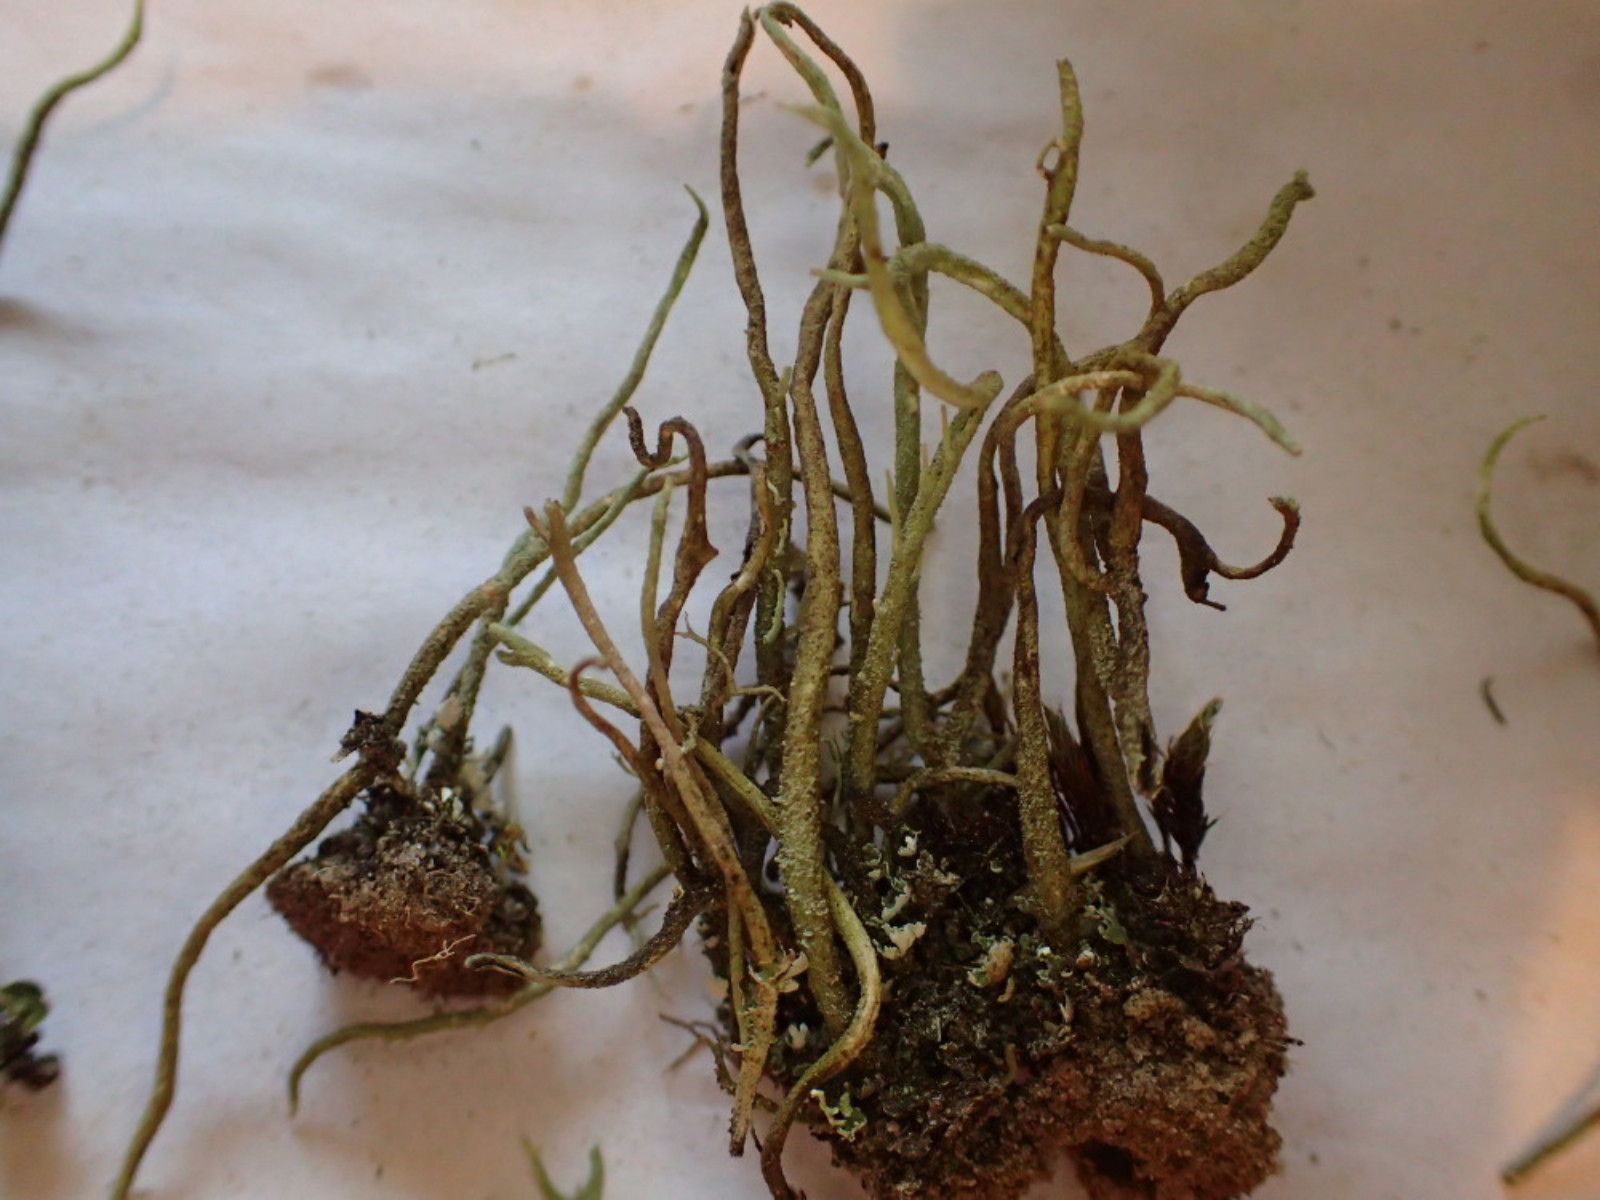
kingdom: Fungi
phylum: Ascomycota
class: Lecanoromycetes
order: Lecanorales
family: Cladoniaceae
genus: Cladonia
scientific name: Cladonia subulata
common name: spids bægerlav
